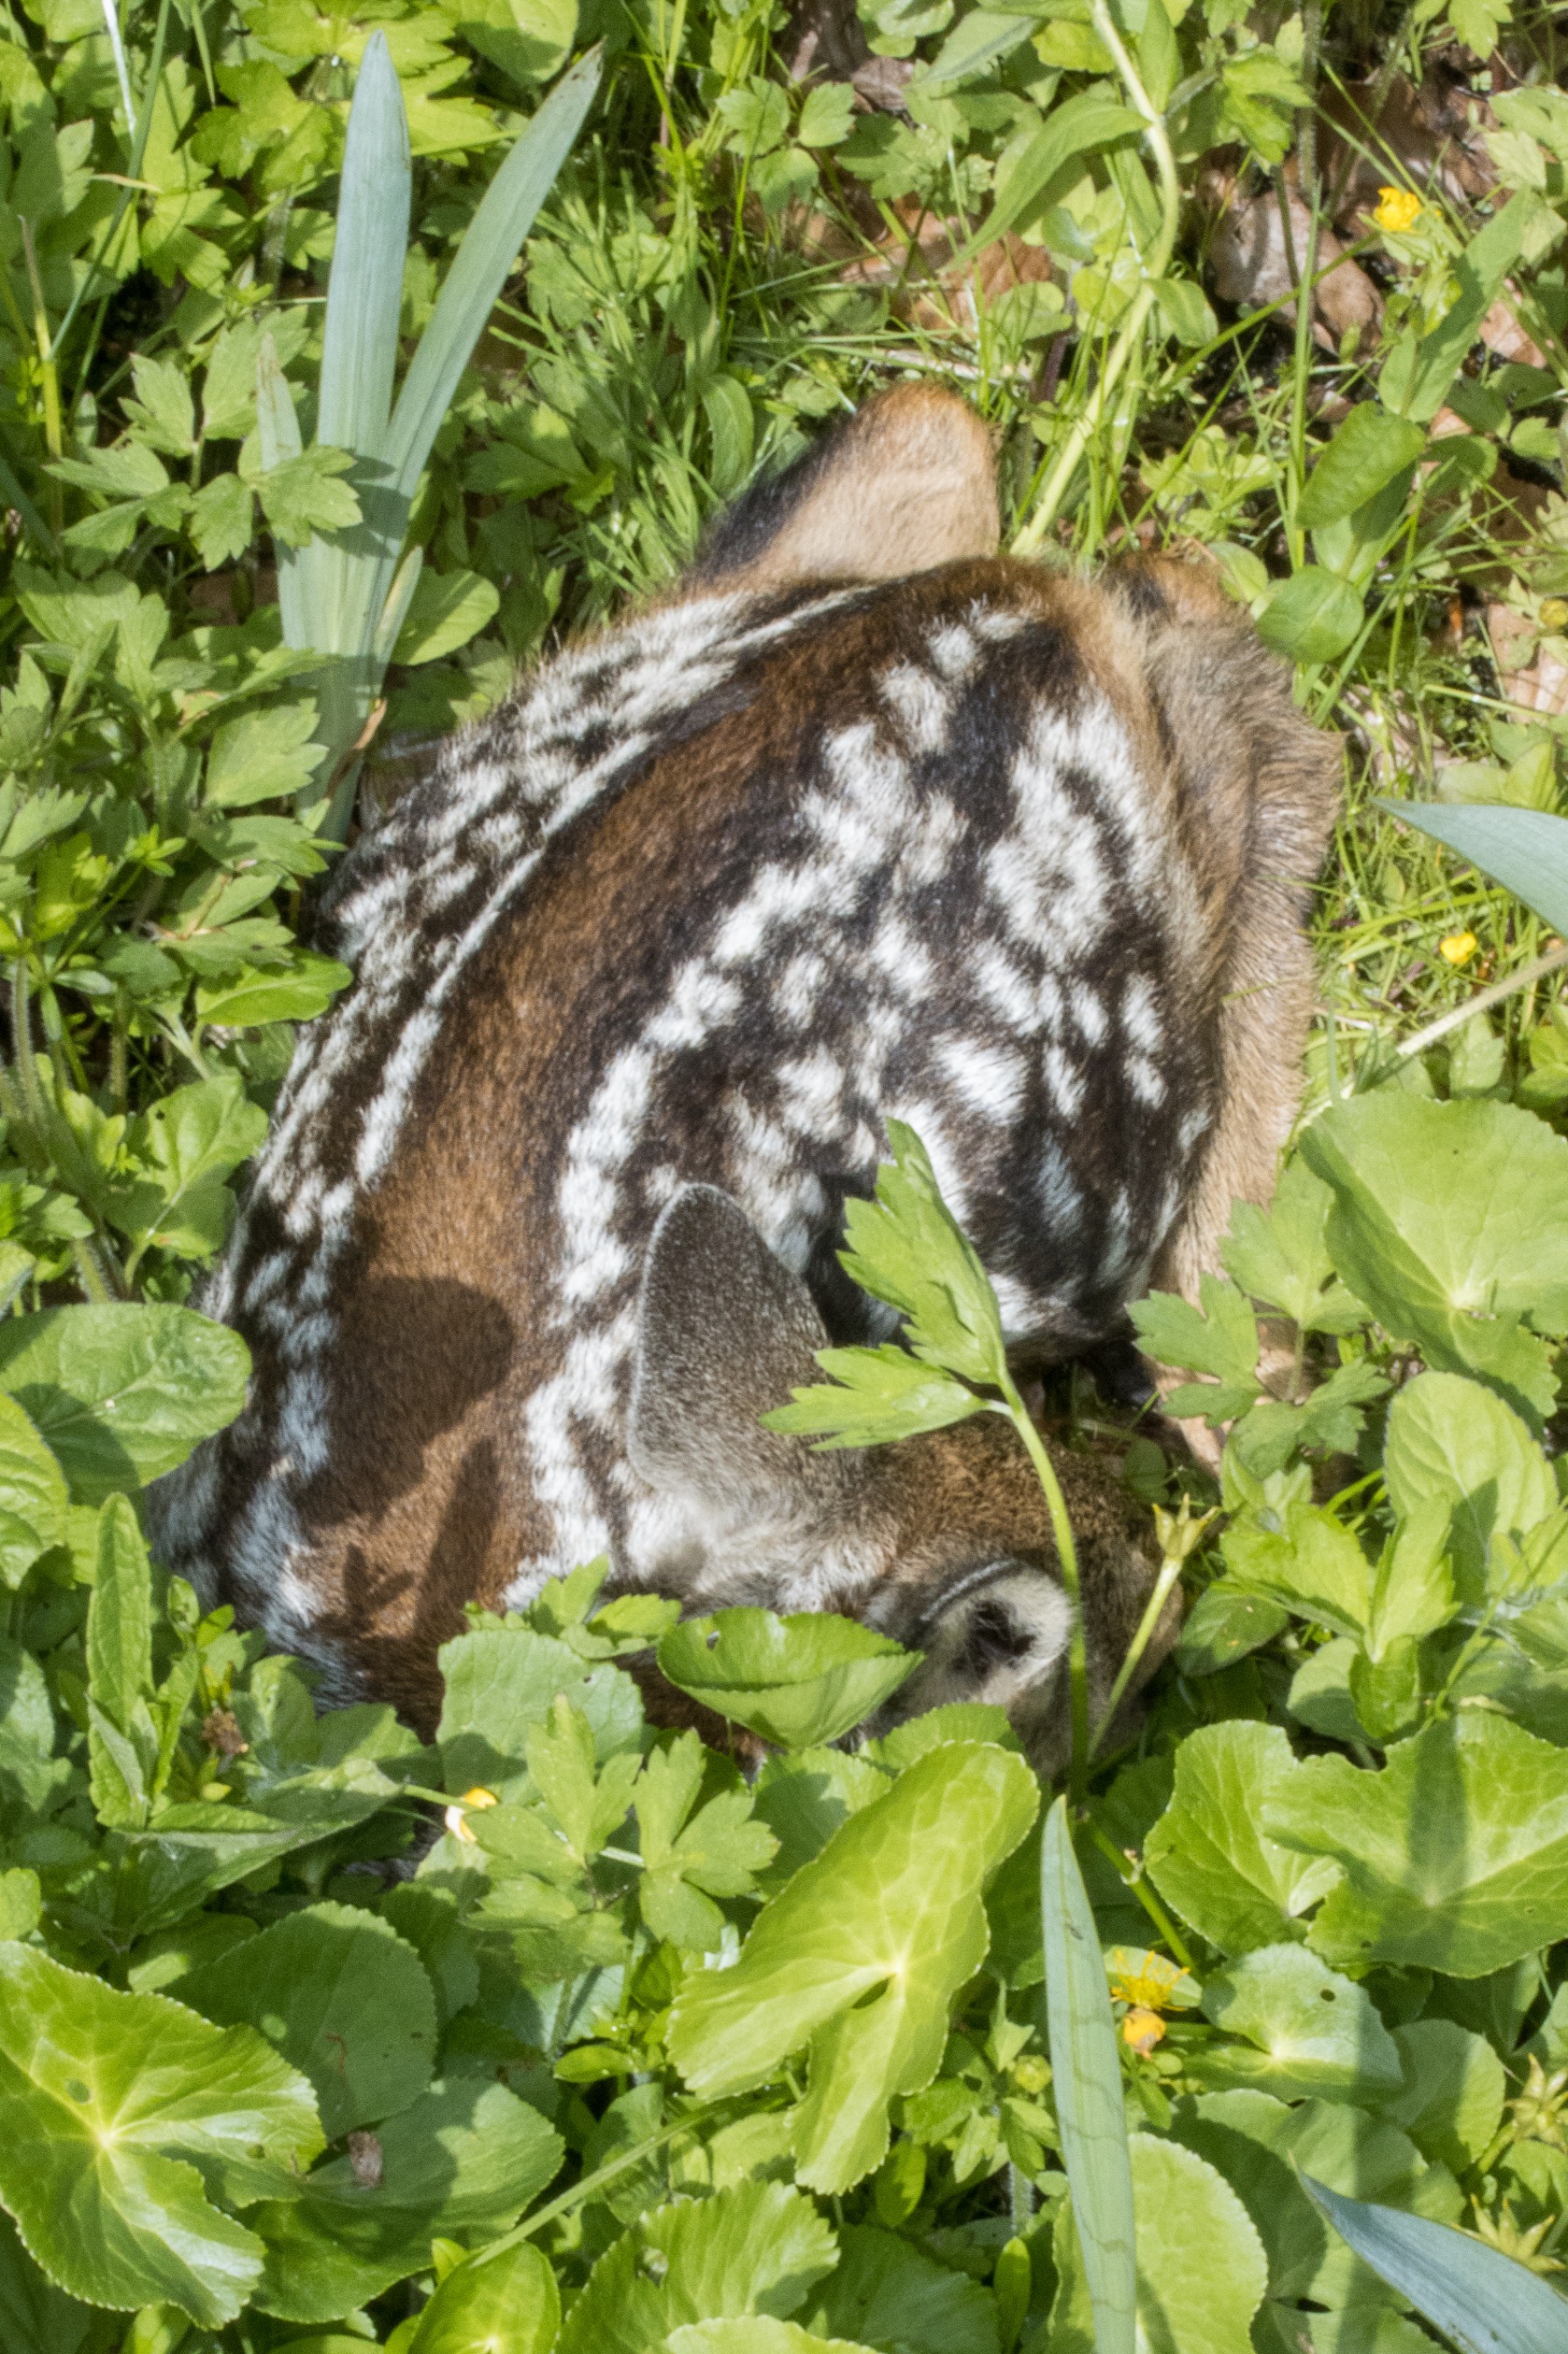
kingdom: Animalia
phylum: Chordata
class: Mammalia
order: Artiodactyla
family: Cervidae
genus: Capreolus
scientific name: Capreolus capreolus
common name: Rådyr
